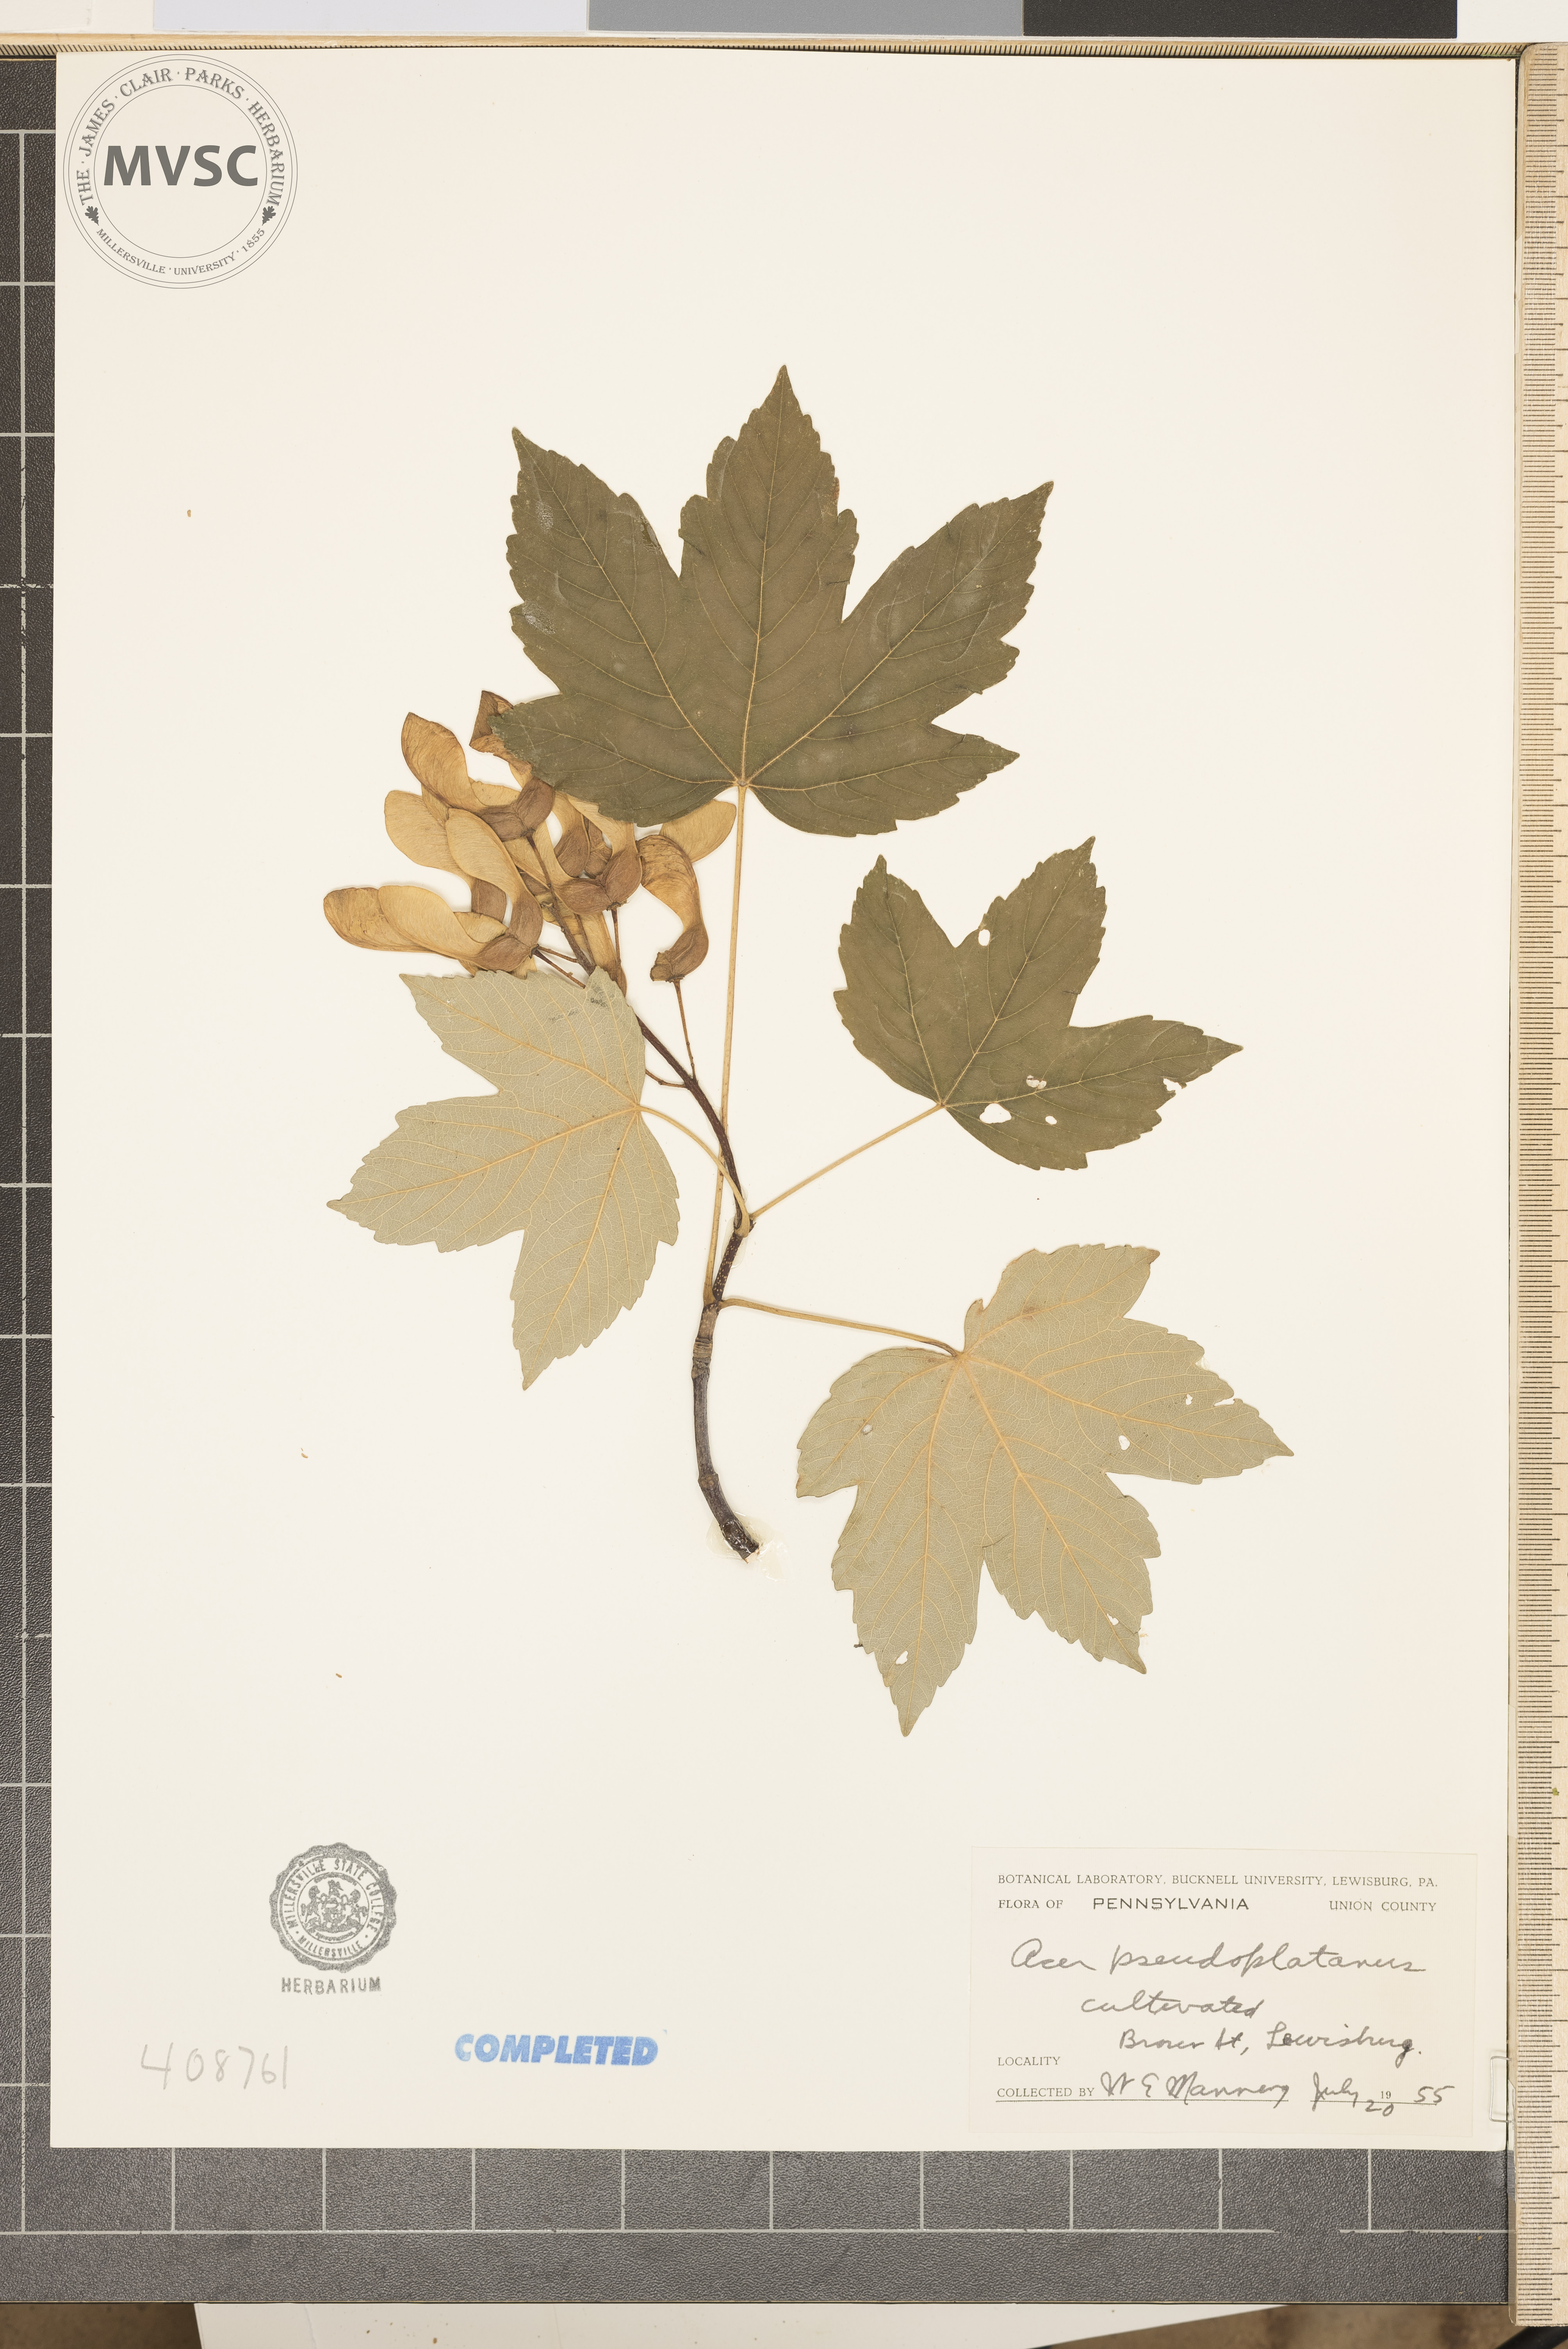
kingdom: Plantae
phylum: Tracheophyta
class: Magnoliopsida
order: Sapindales
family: Sapindaceae
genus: Acer
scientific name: Acer pseudoplatanus
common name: Sycamore
